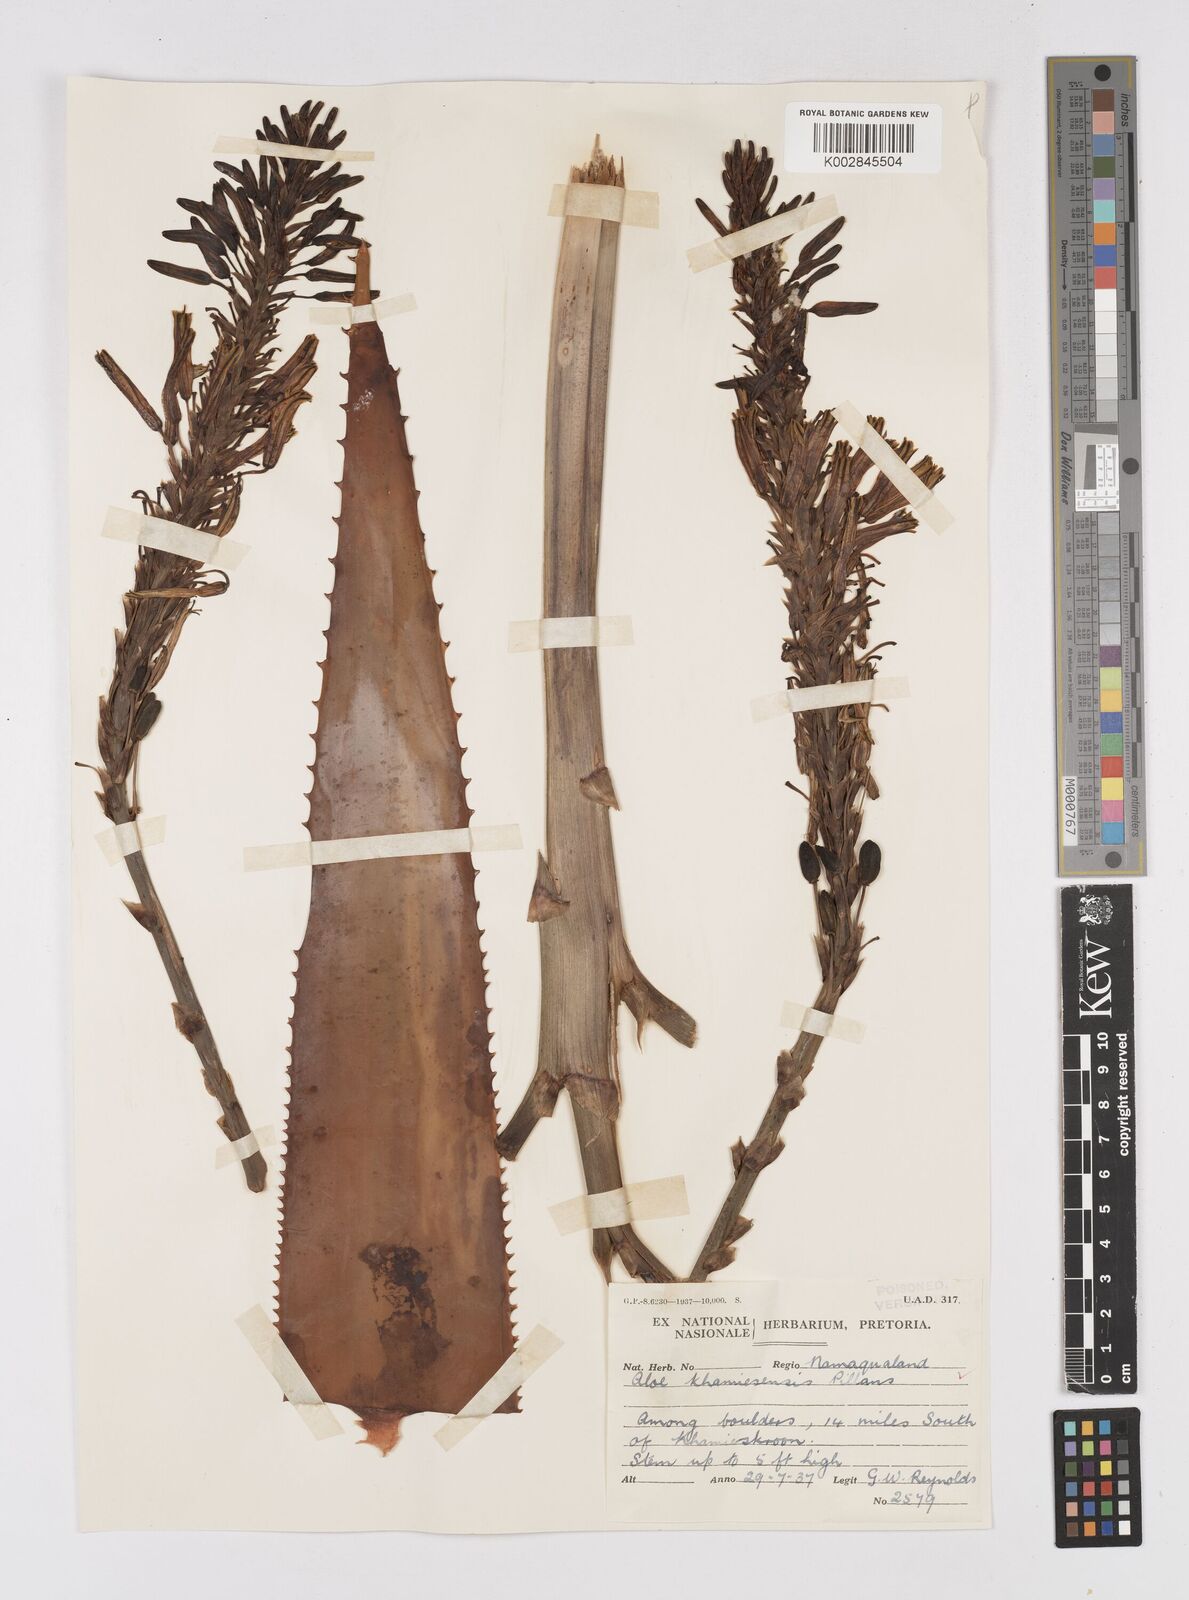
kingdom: Plantae
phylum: Tracheophyta
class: Liliopsida
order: Asparagales
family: Asphodelaceae
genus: Aloe
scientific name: Aloe khamiesensis
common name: Namaqua aloe
